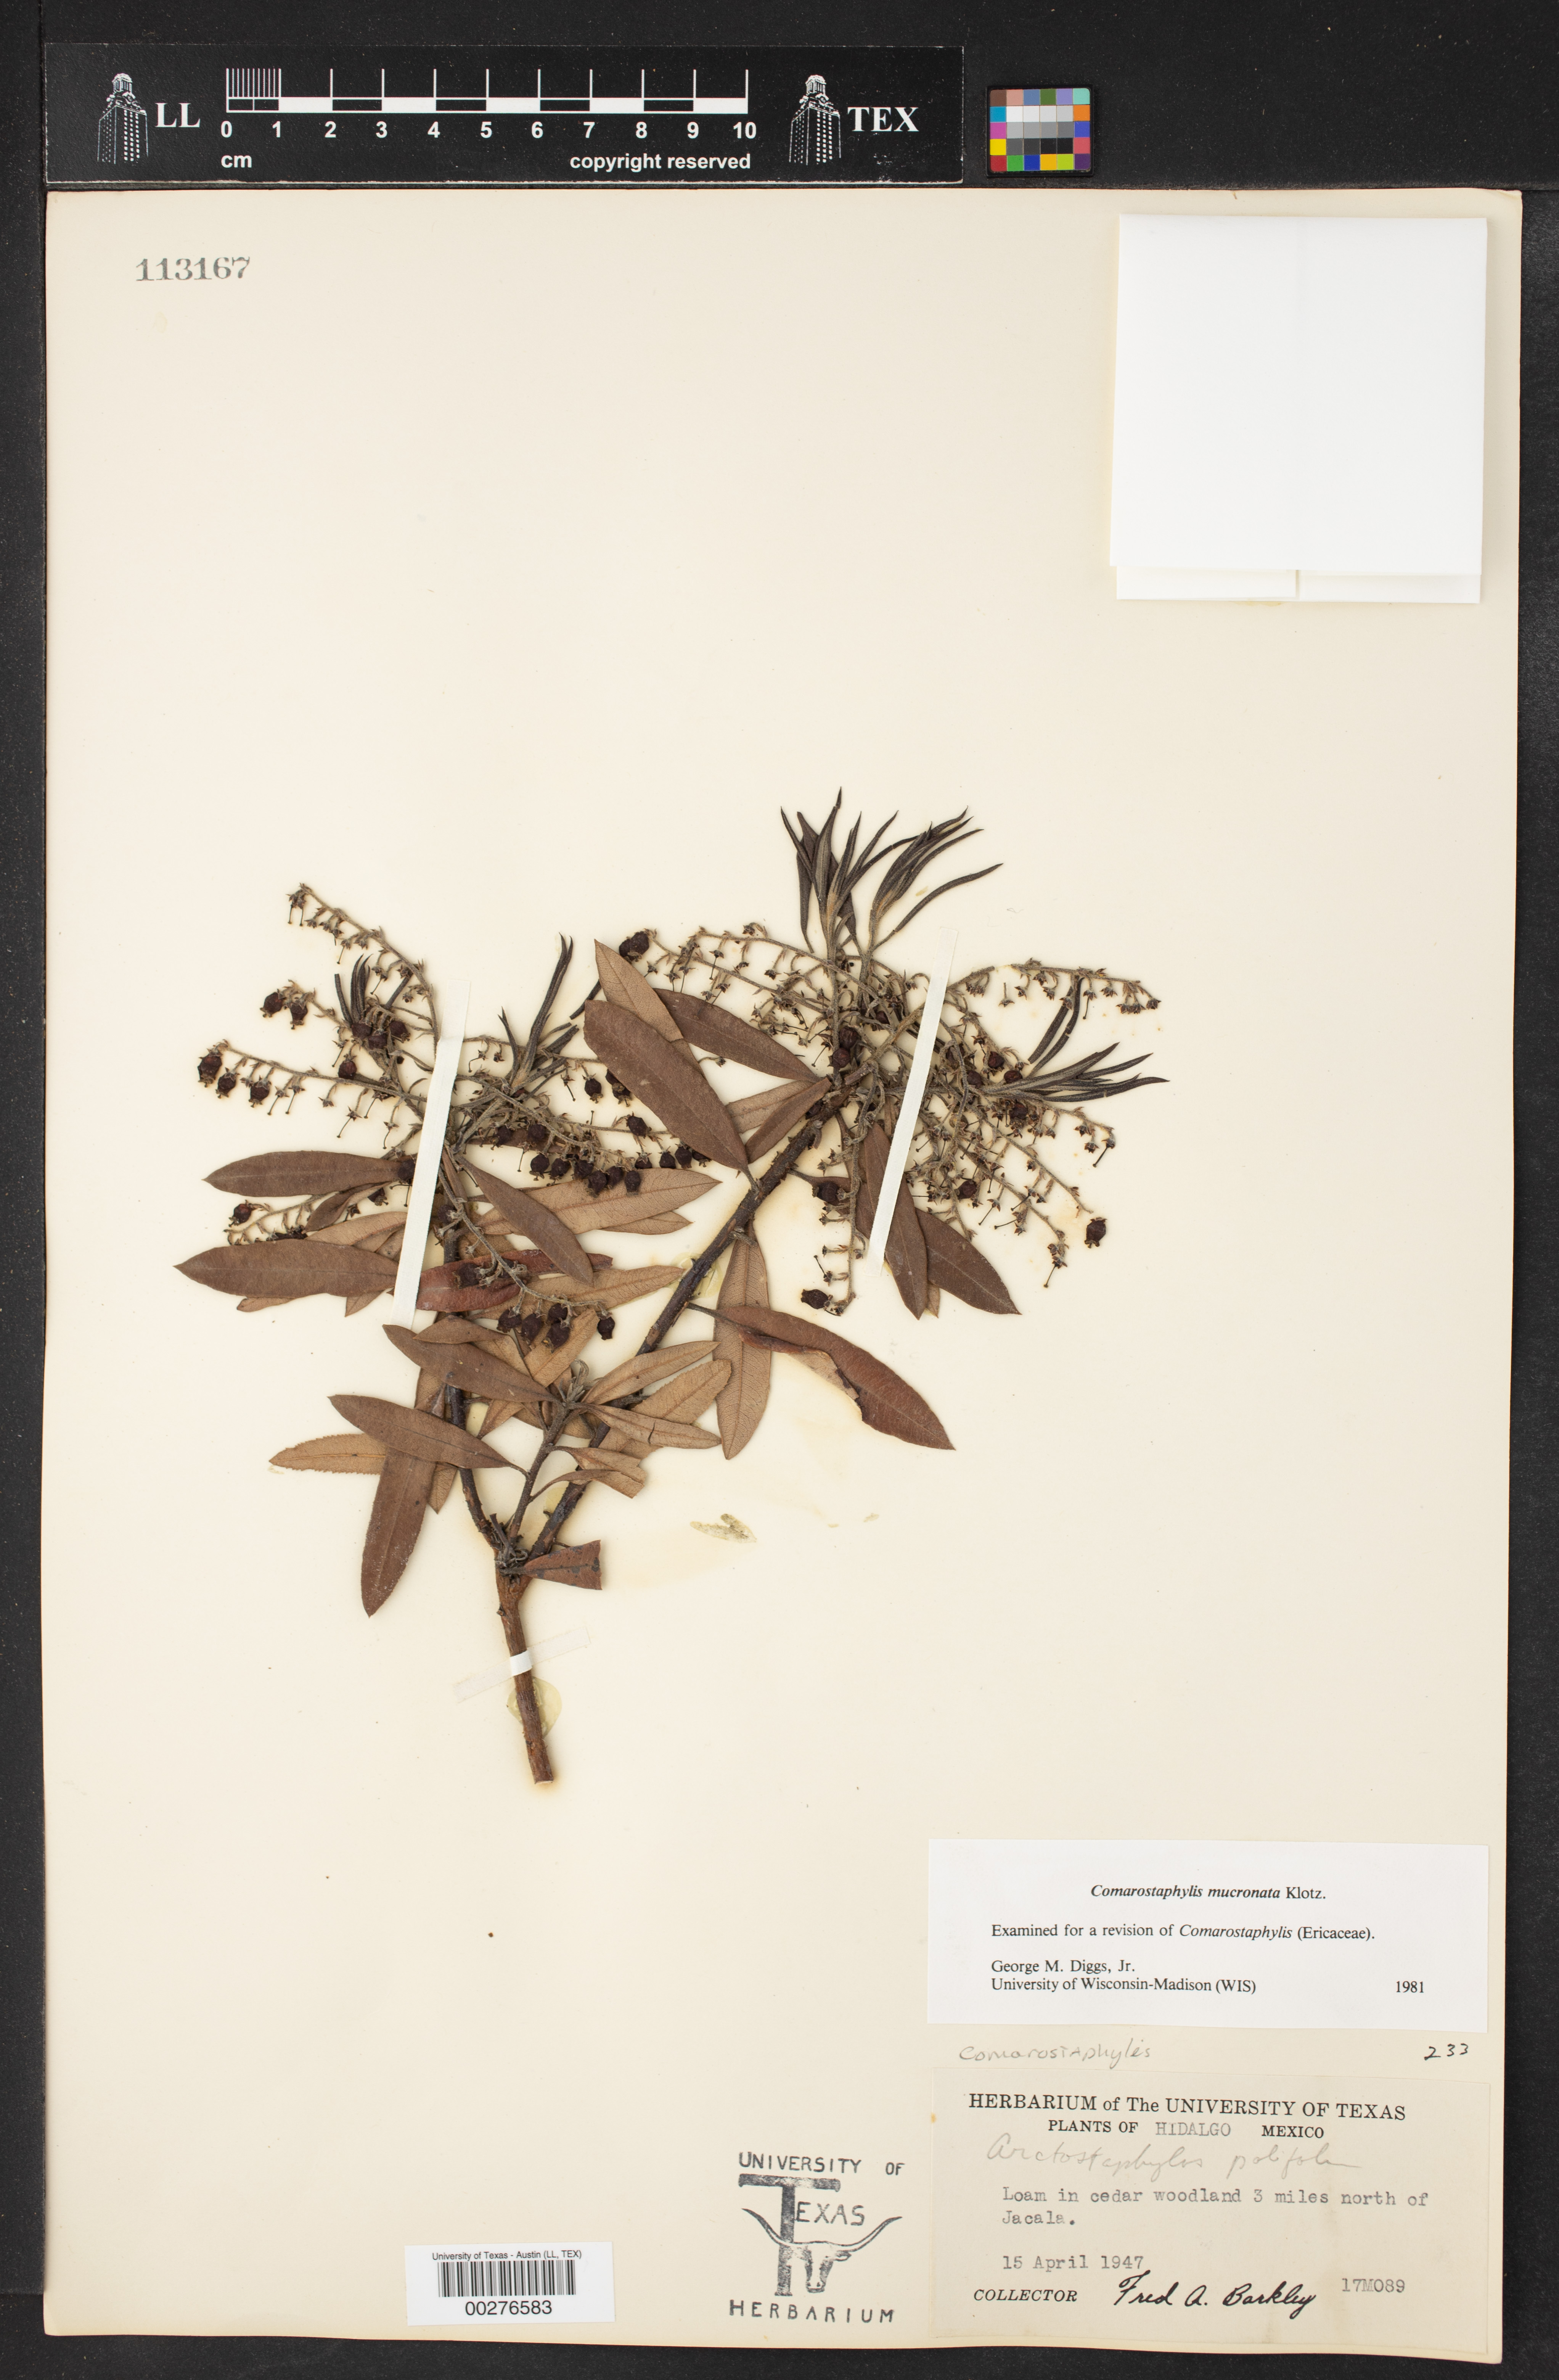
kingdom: Plantae
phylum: Tracheophyta
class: Magnoliopsida
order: Ericales
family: Ericaceae
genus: Comarostaphylis
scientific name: Comarostaphylis mucronata
